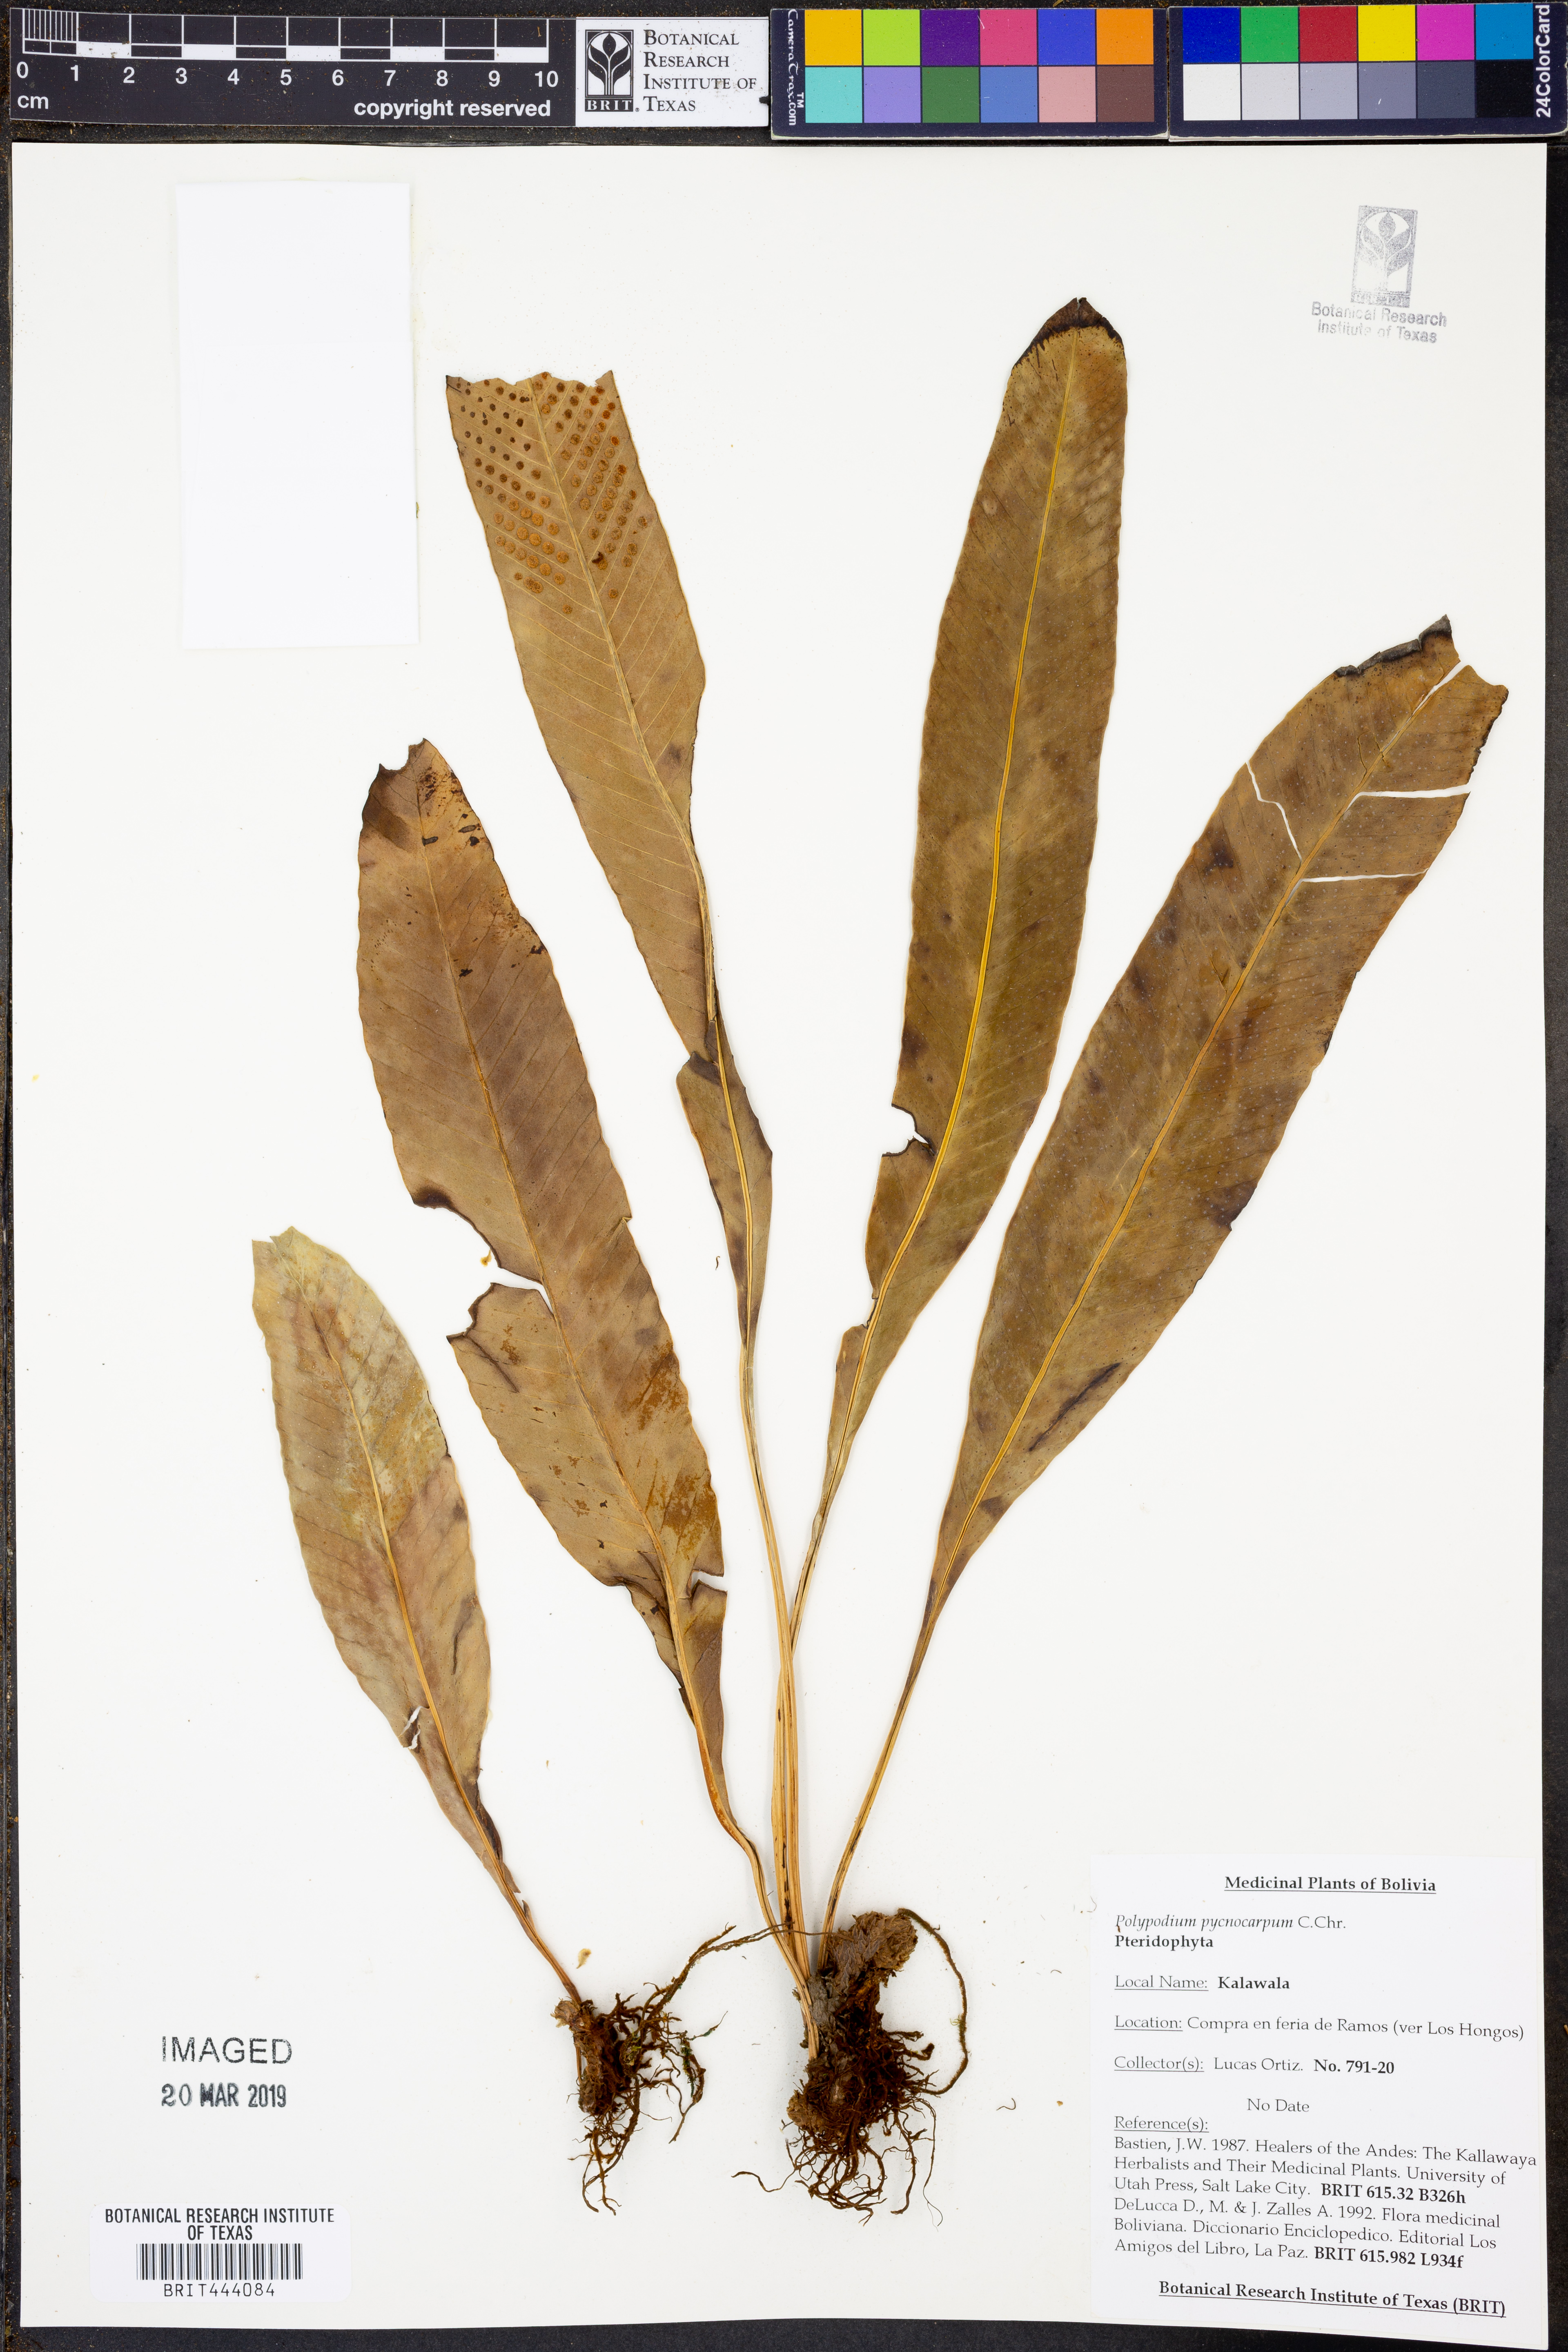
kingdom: Plantae
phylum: Tracheophyta
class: Polypodiopsida
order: Polypodiales
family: Polypodiaceae
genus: Pleopeltis
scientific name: Pleopeltis pycnocarpa
